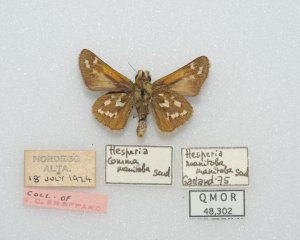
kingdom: Animalia
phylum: Arthropoda
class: Insecta
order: Lepidoptera
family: Hesperiidae
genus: Hesperia
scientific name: Hesperia comma
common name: Common Branded Skipper
